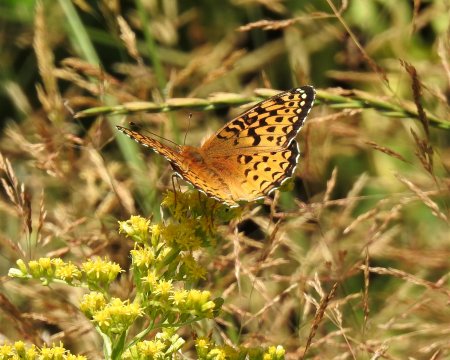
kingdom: Animalia
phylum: Arthropoda
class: Insecta
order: Lepidoptera
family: Nymphalidae
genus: Speyeria
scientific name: Speyeria atlantis
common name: Atlantis Fritillary
